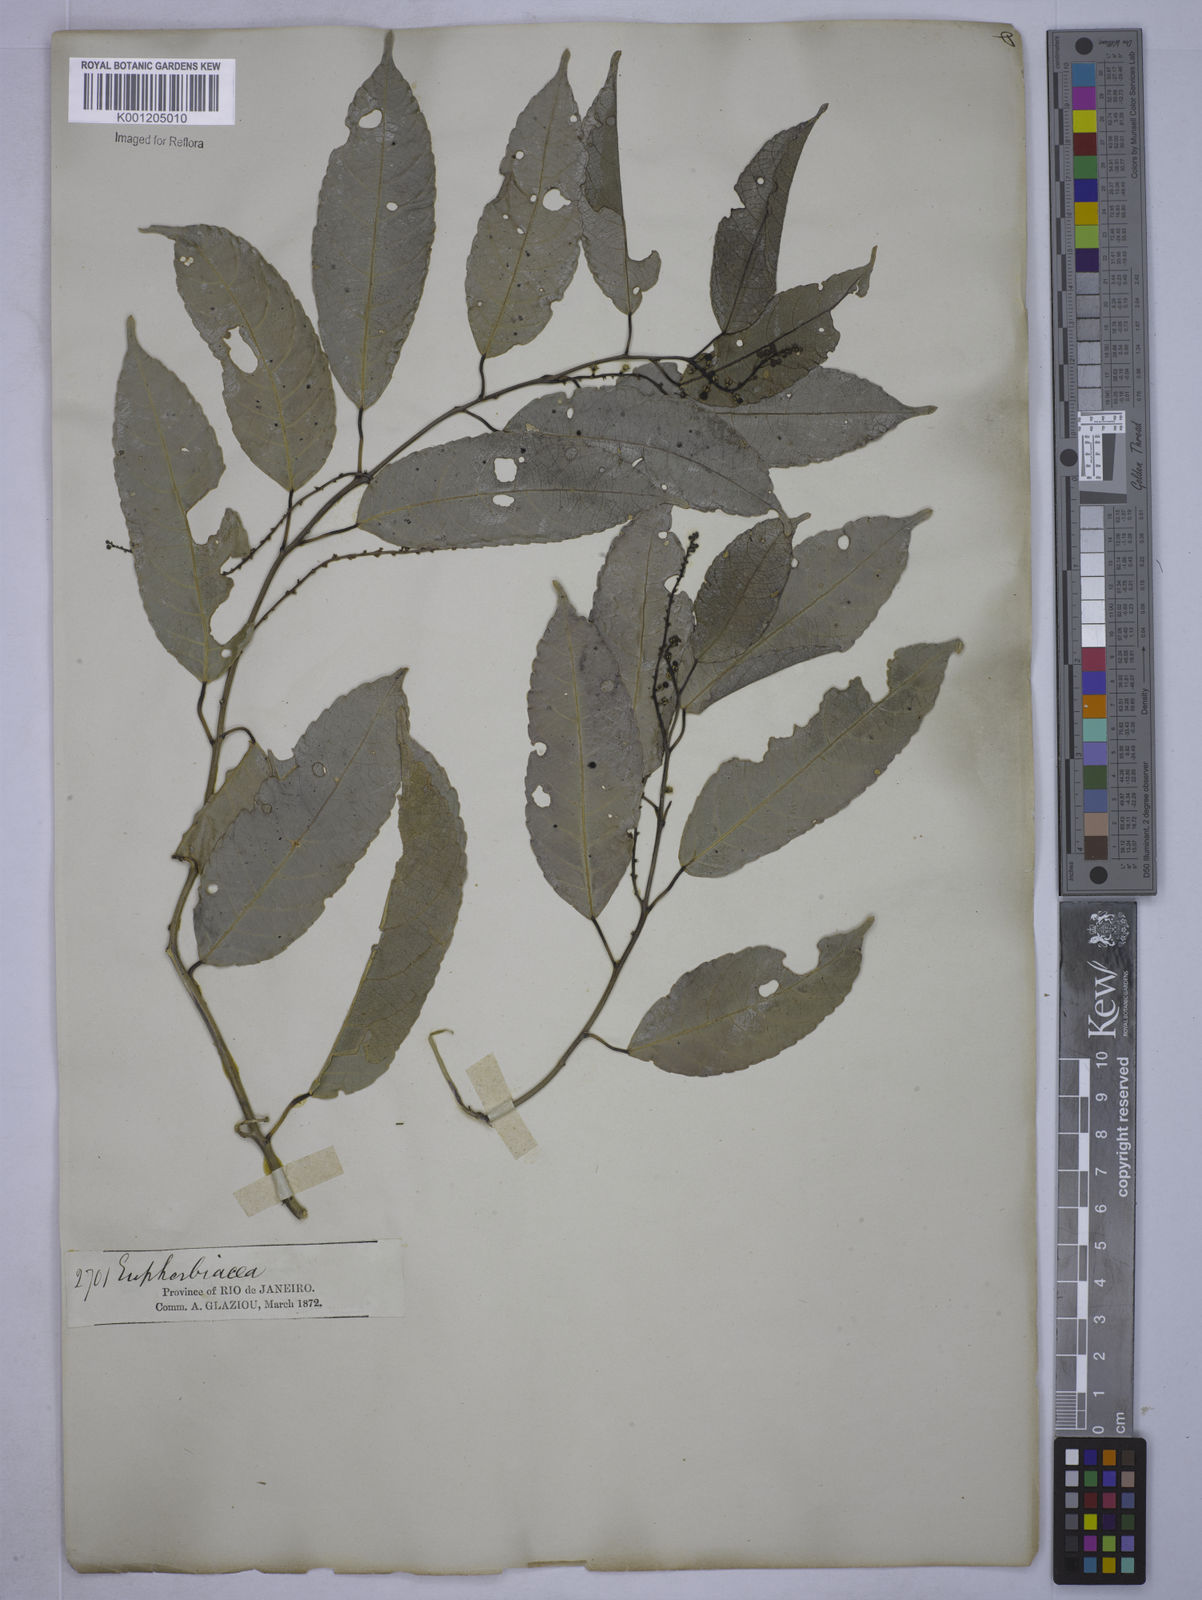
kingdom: Plantae
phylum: Tracheophyta
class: Magnoliopsida
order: Malpighiales
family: Euphorbiaceae
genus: Plukenetia
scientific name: Plukenetia serrata
